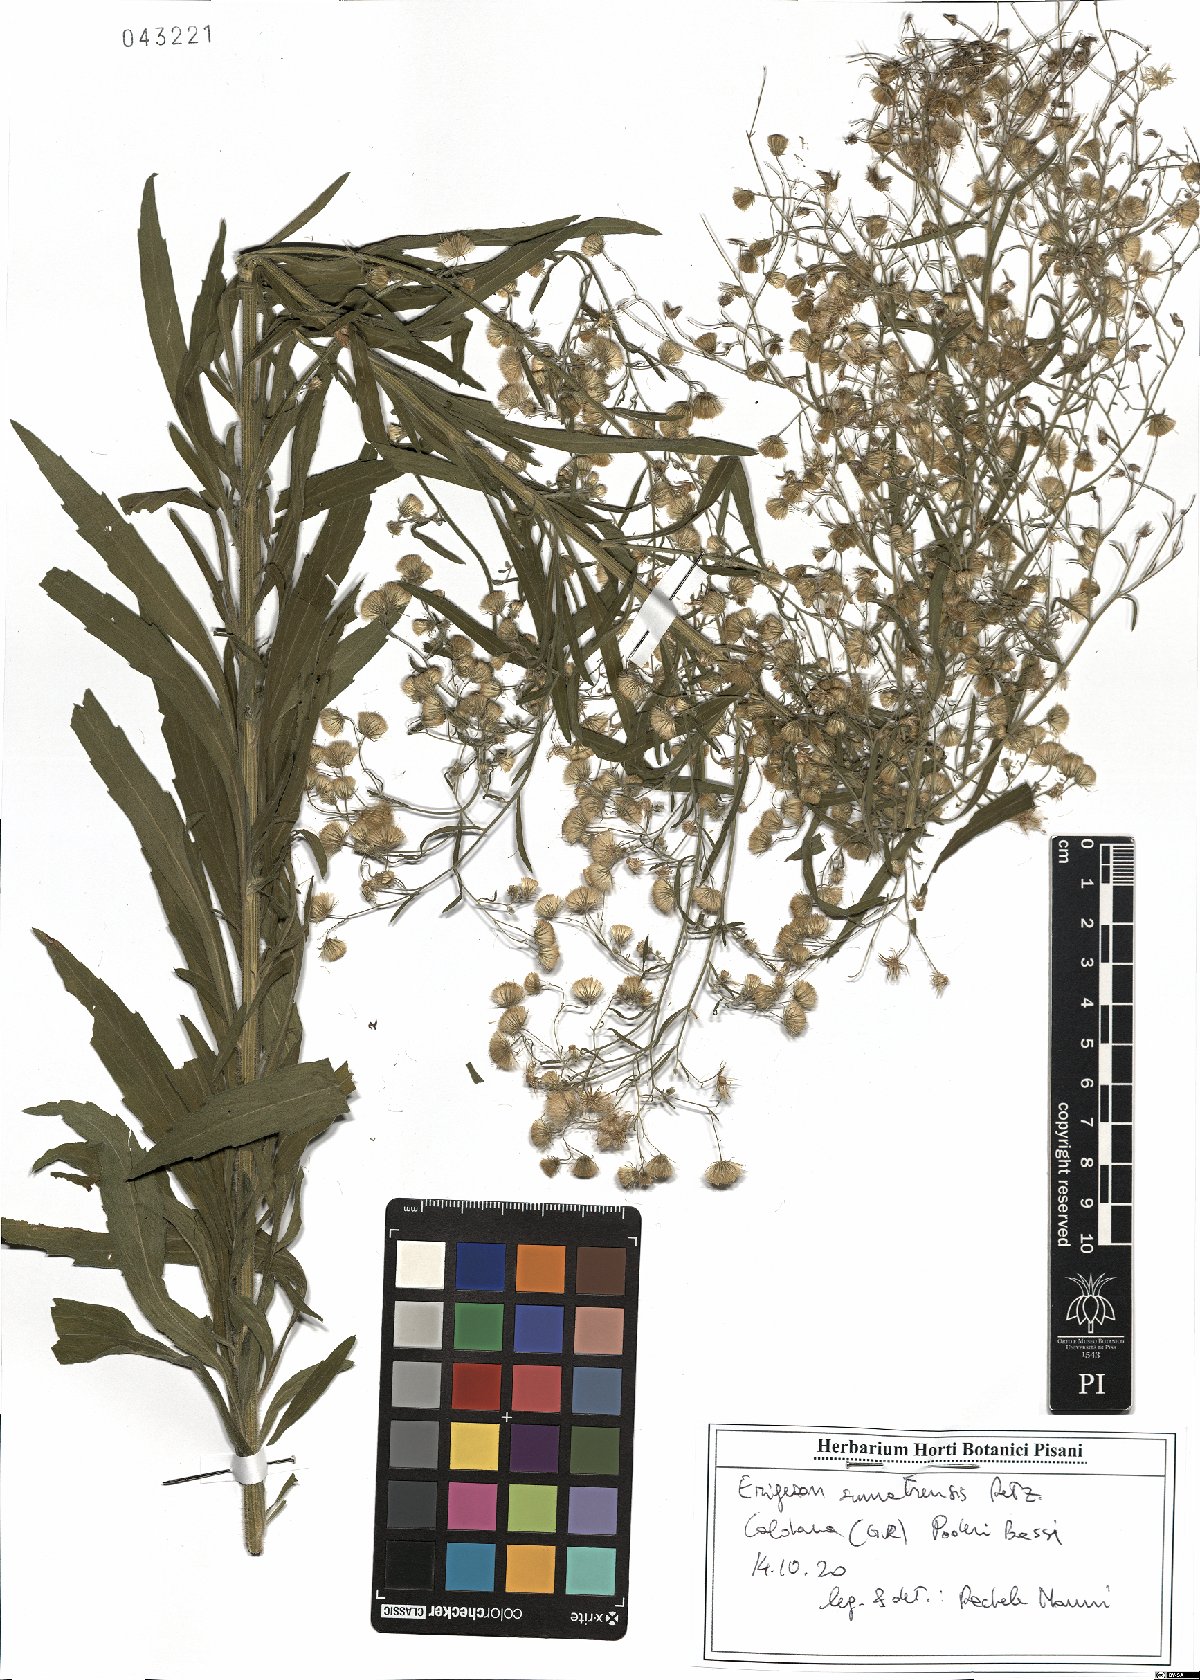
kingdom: Plantae
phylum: Tracheophyta
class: Magnoliopsida
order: Asterales
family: Asteraceae
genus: Erigeron
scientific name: Erigeron sumatrensis
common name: Daisy
